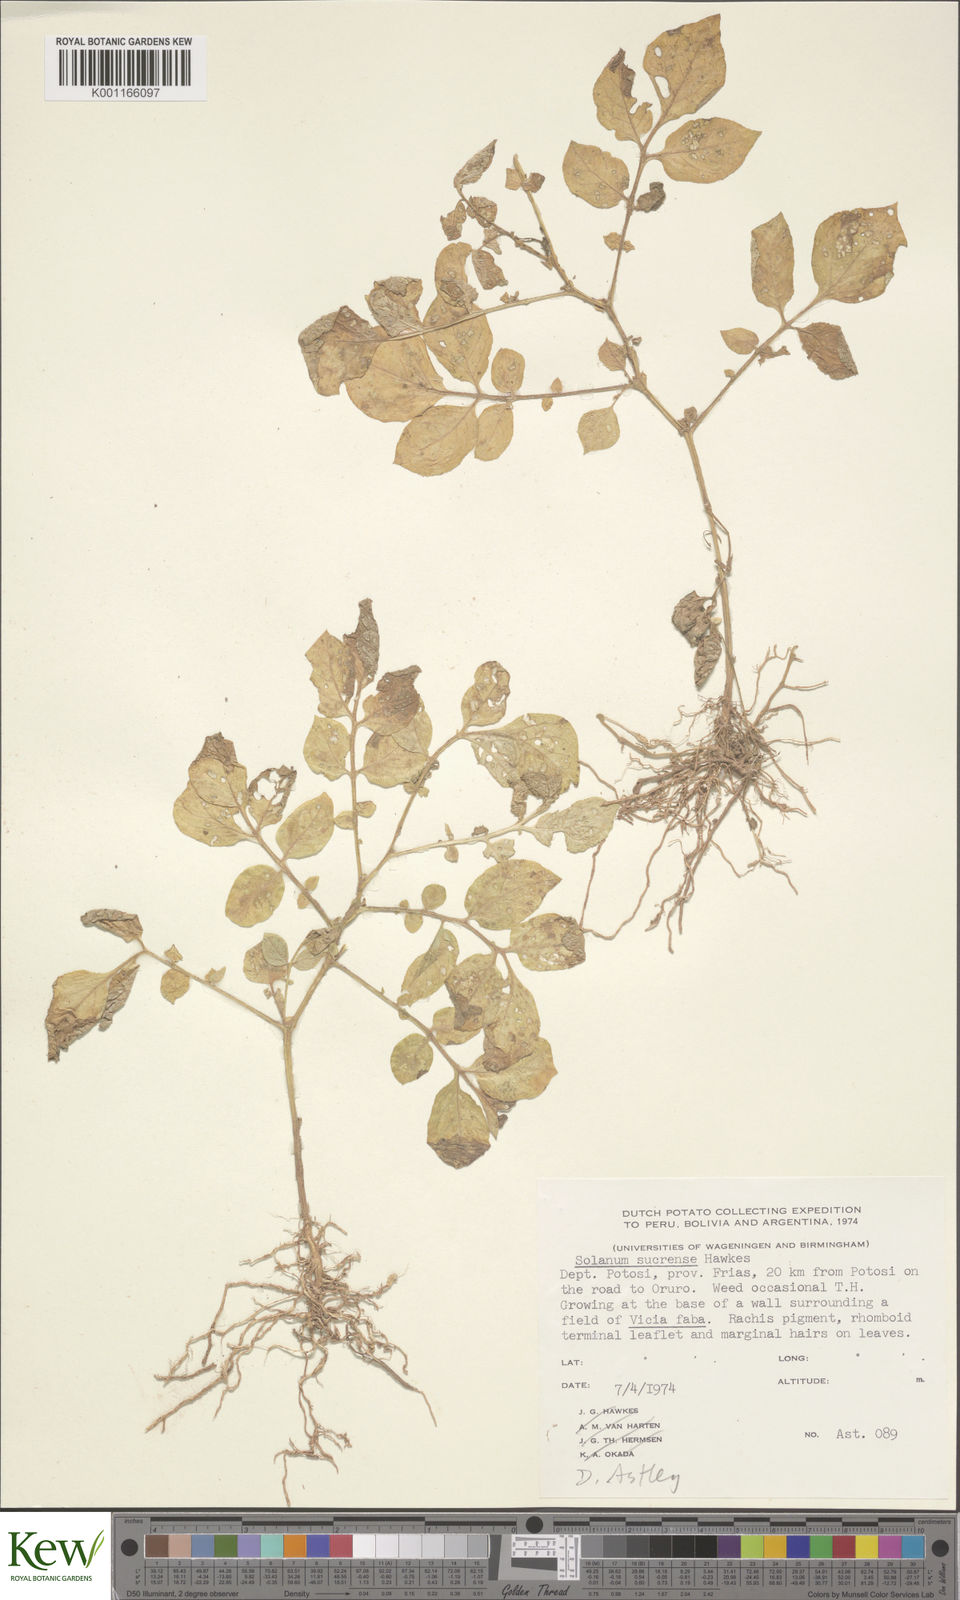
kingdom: Plantae
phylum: Tracheophyta
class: Magnoliopsida
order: Solanales
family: Solanaceae
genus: Solanum
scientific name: Solanum brevicaule
